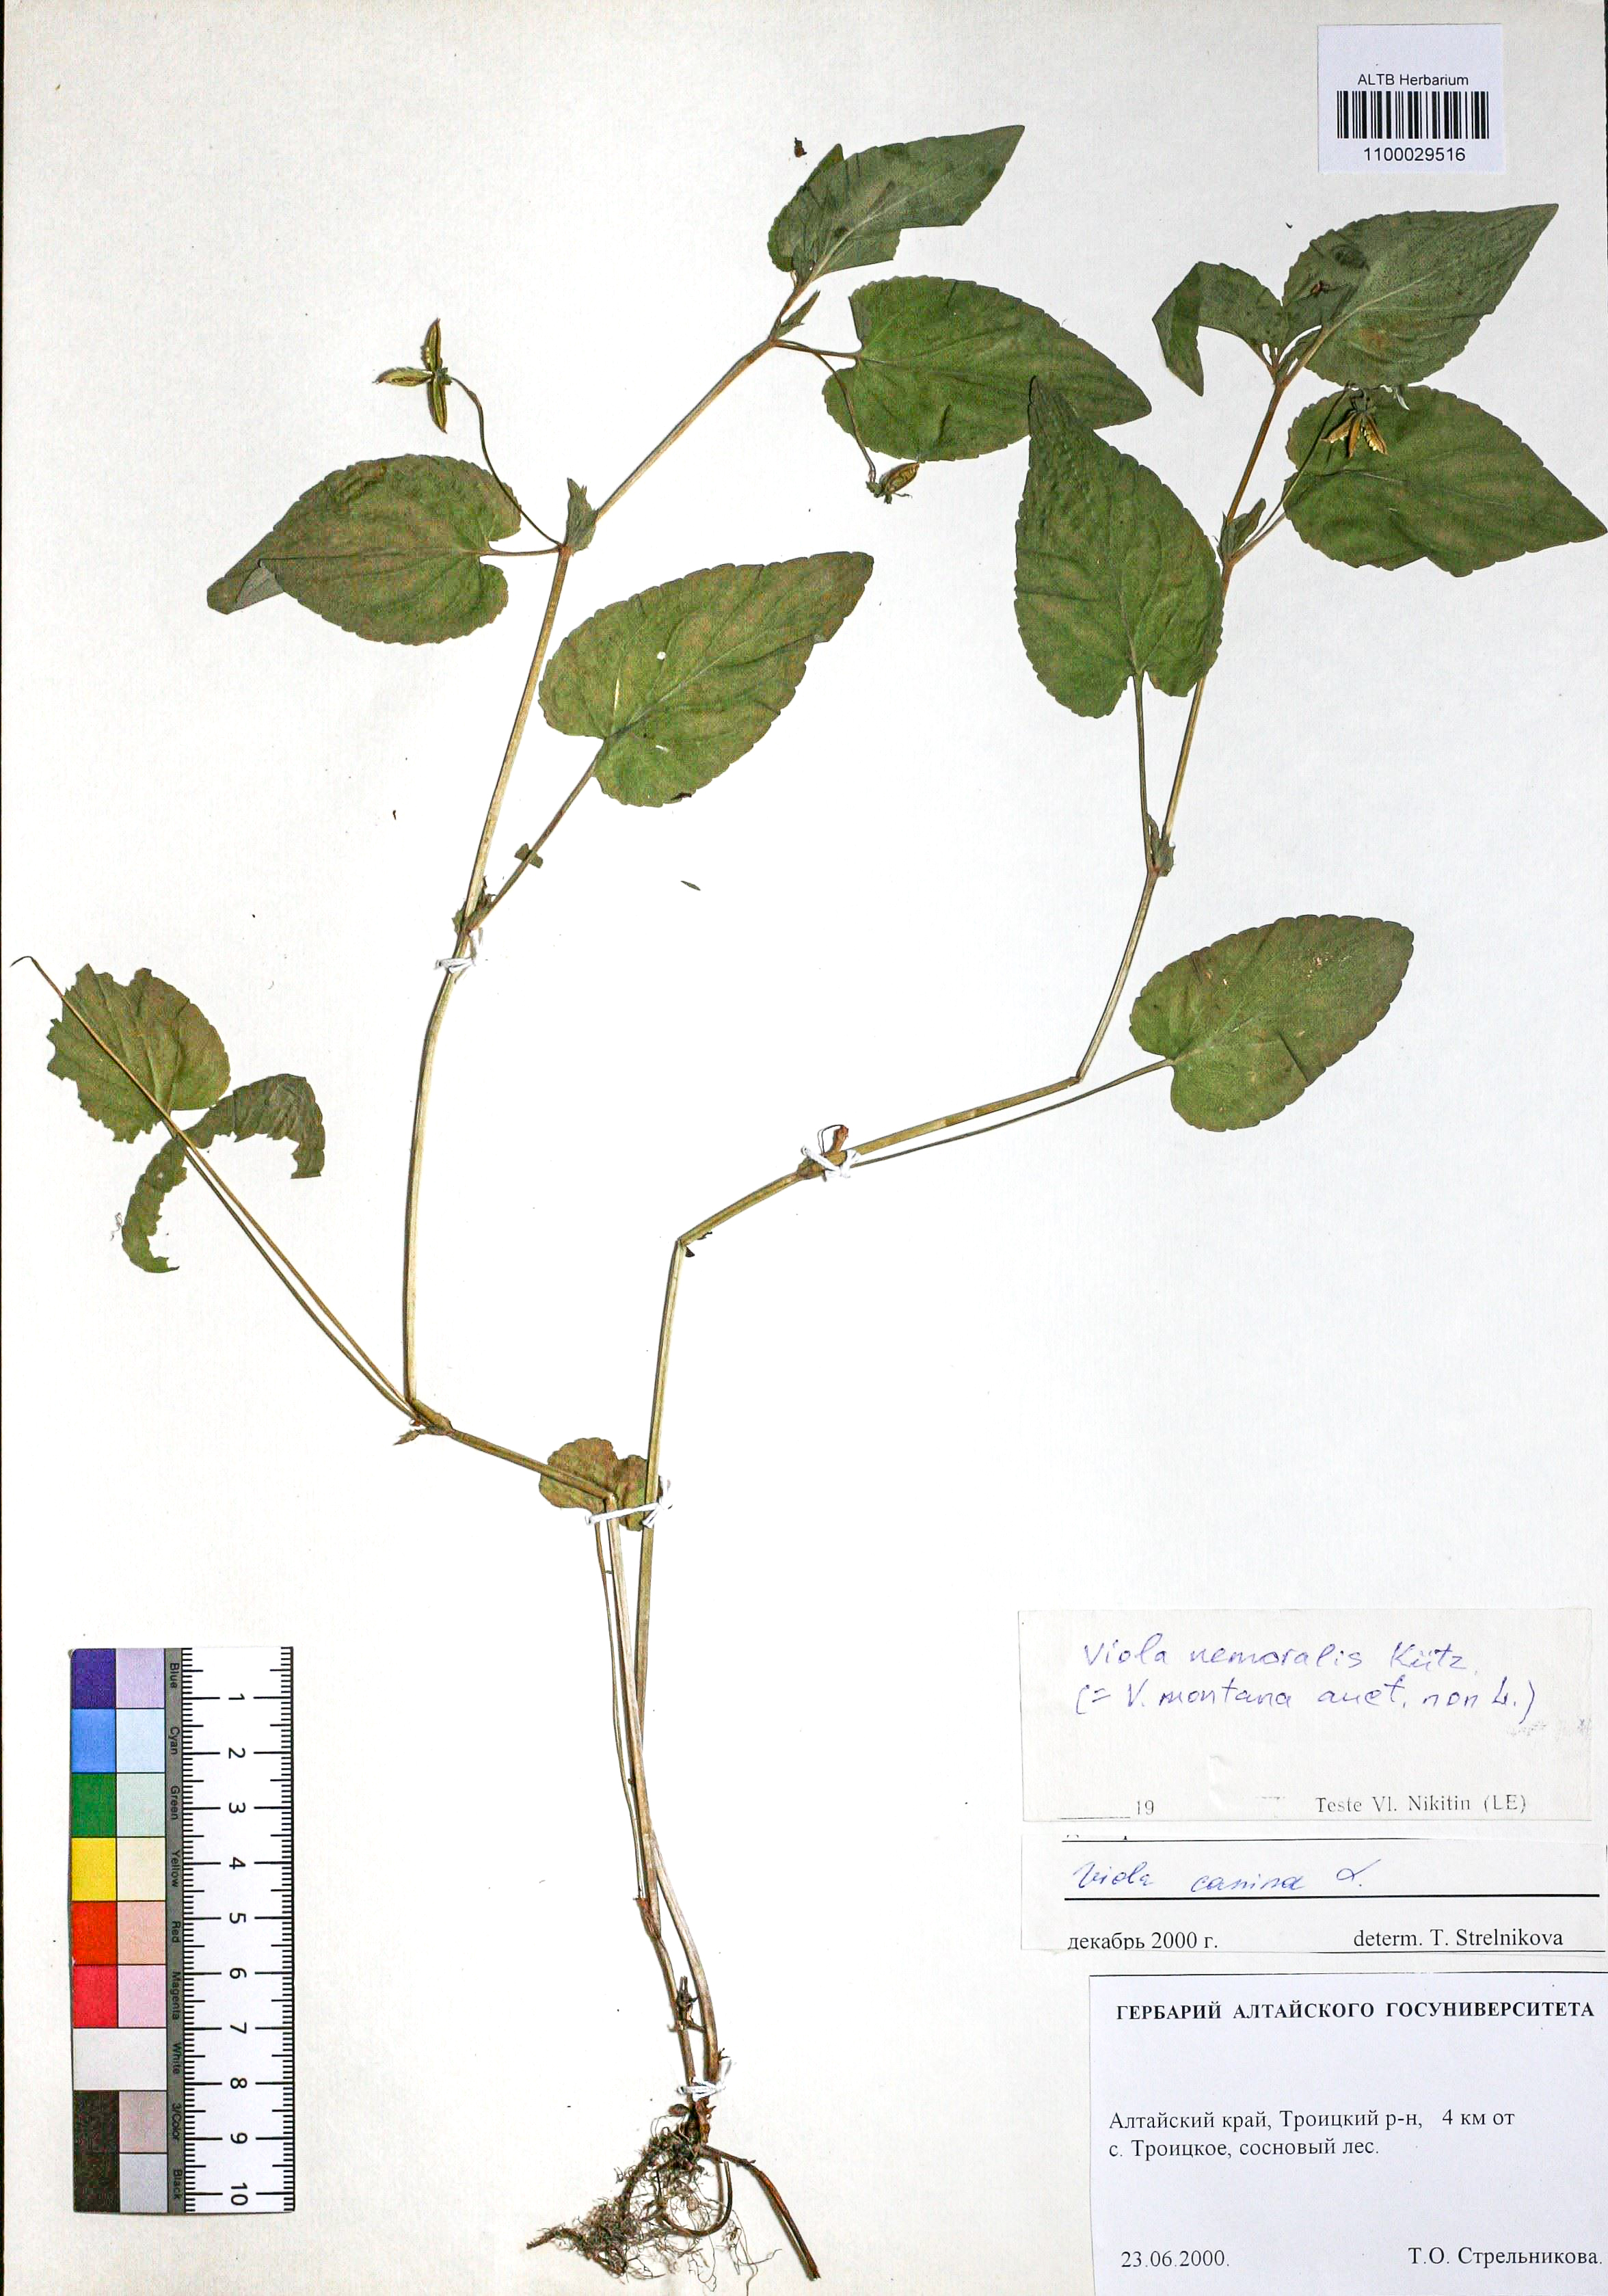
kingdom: Plantae
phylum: Tracheophyta
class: Magnoliopsida
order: Malpighiales
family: Violaceae
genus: Viola
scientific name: Viola ruppii
